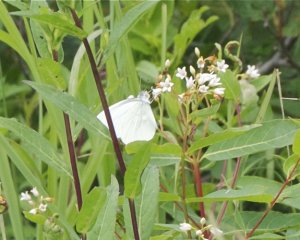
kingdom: Animalia
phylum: Arthropoda
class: Insecta
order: Lepidoptera
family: Pieridae
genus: Pieris
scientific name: Pieris oleracea
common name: Mustard White
